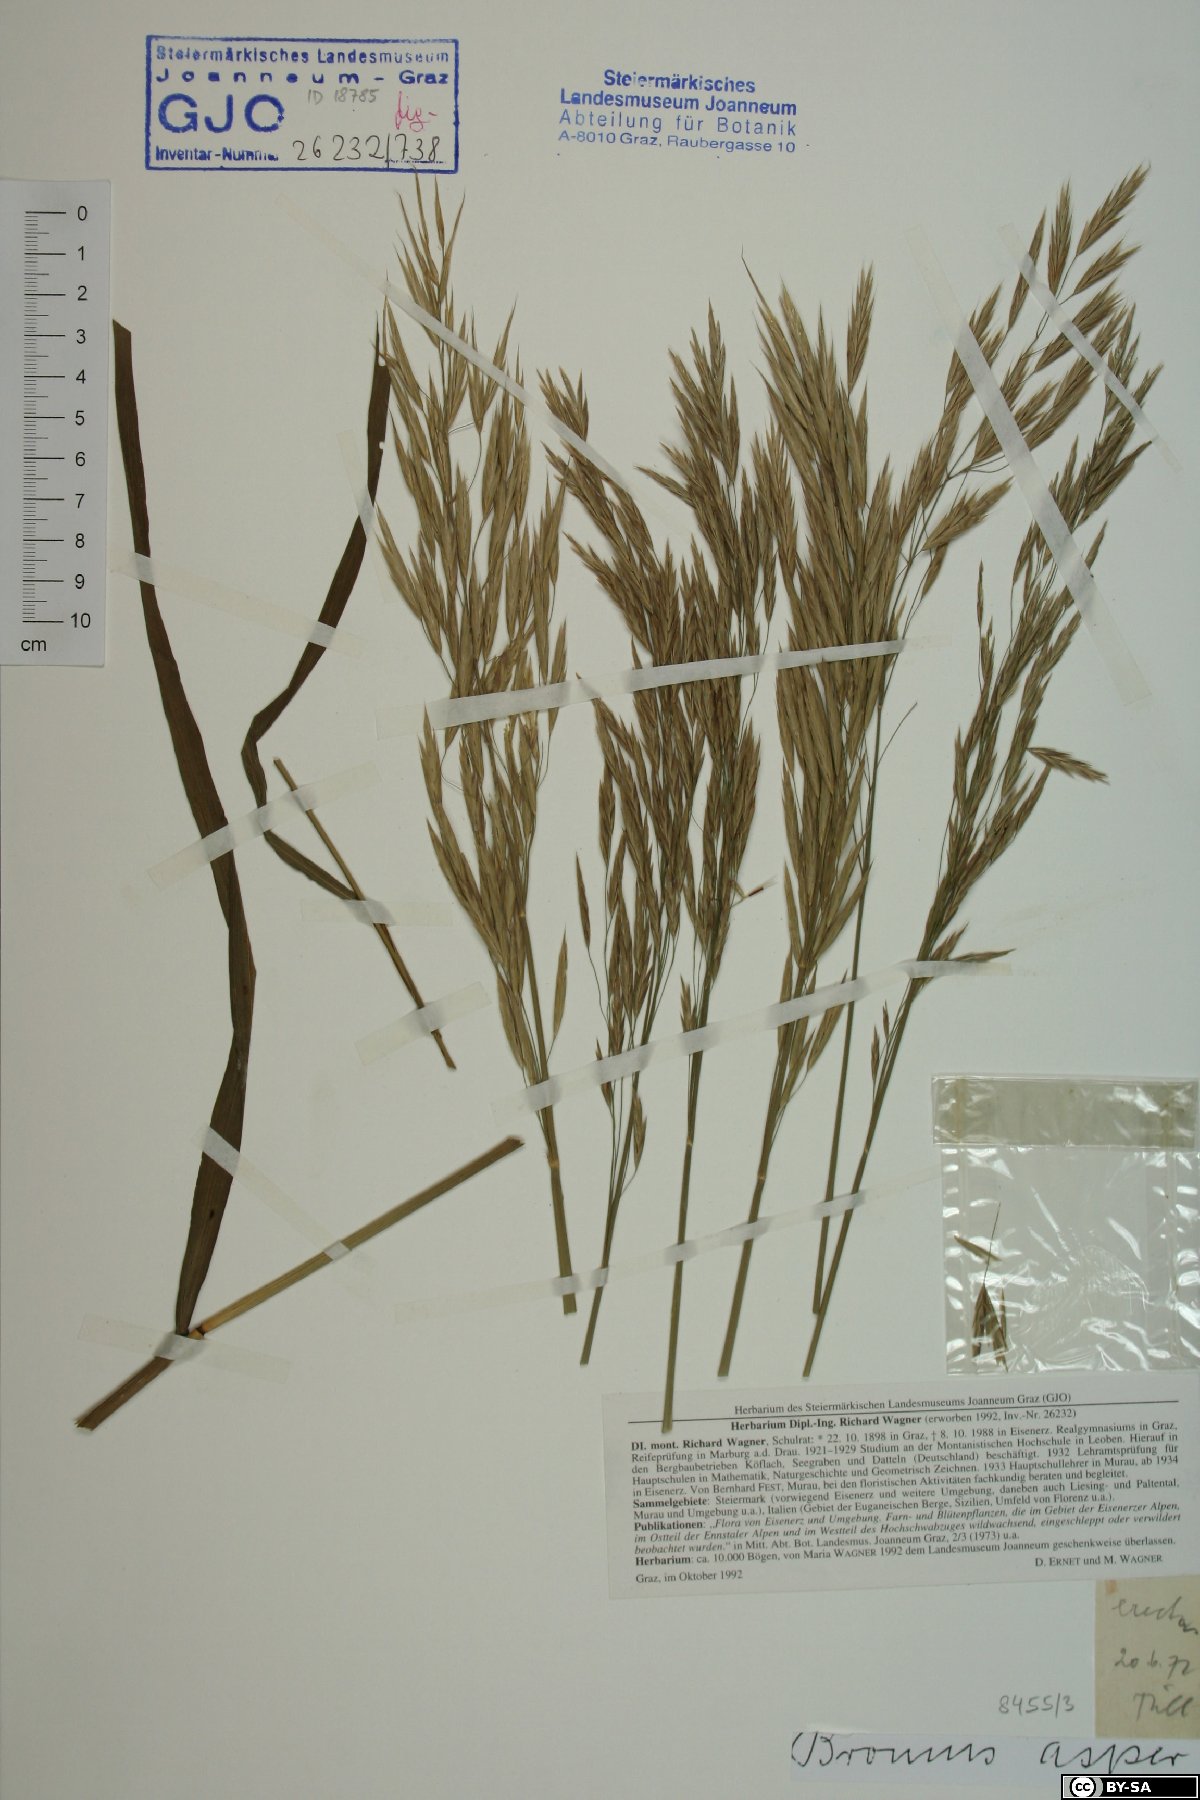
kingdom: Plantae
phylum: Tracheophyta
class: Liliopsida
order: Poales
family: Poaceae
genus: Bromus
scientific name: Bromus ramosus
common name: Hairy brome
